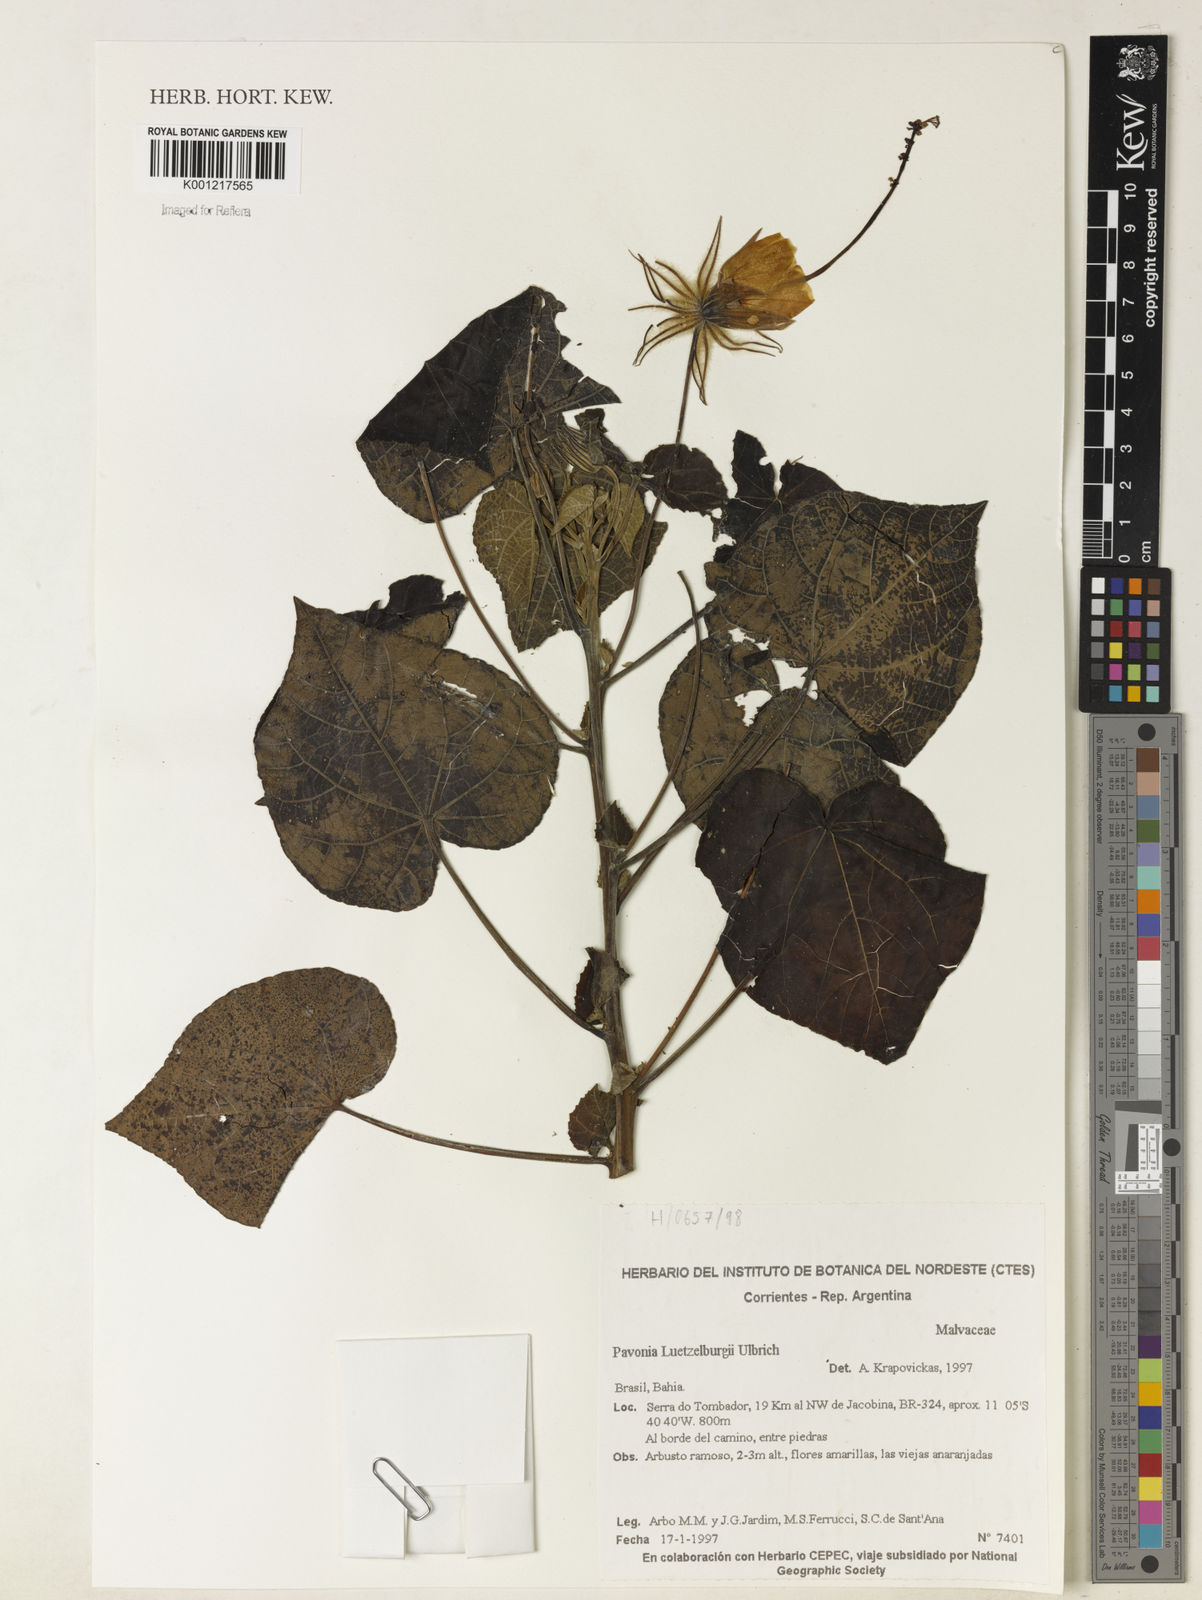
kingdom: Plantae
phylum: Tracheophyta
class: Magnoliopsida
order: Malvales
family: Malvaceae
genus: Pavonia
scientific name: Pavonia luetzelburgii
